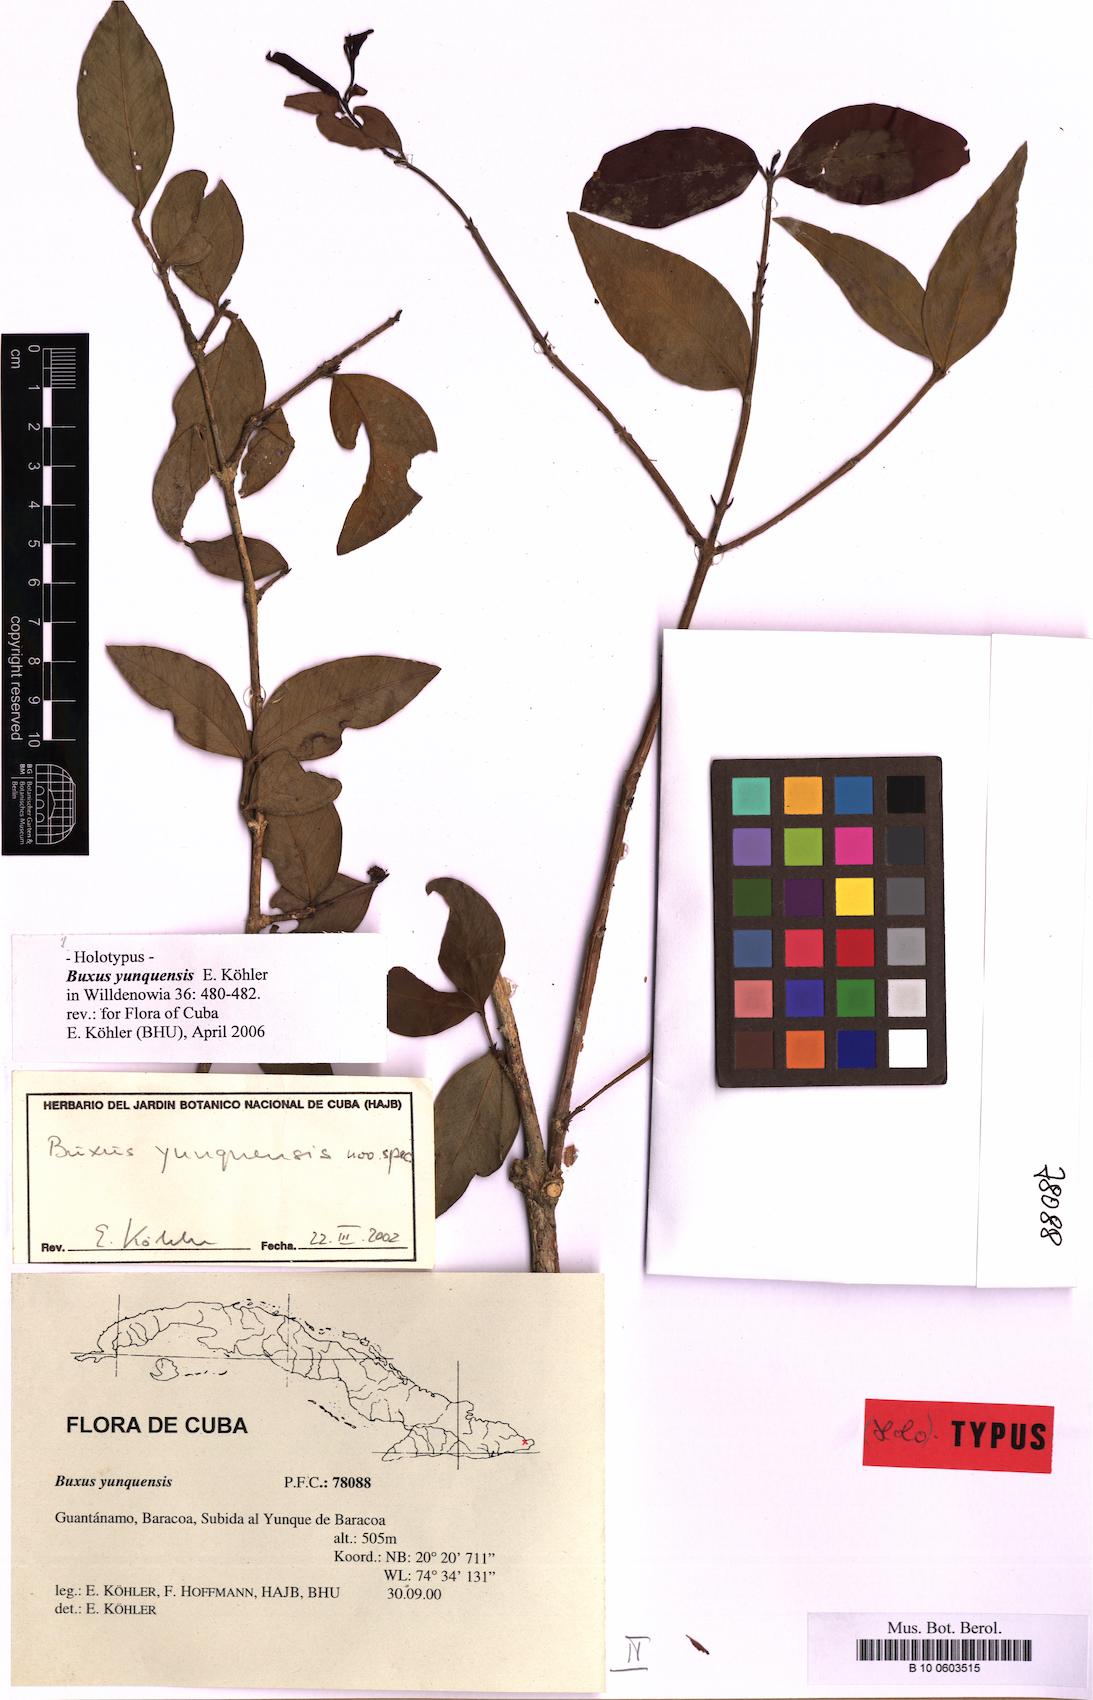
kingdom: Plantae
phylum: Tracheophyta
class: Magnoliopsida
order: Buxales
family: Buxaceae
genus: Buxus
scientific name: Buxus yunquensis
